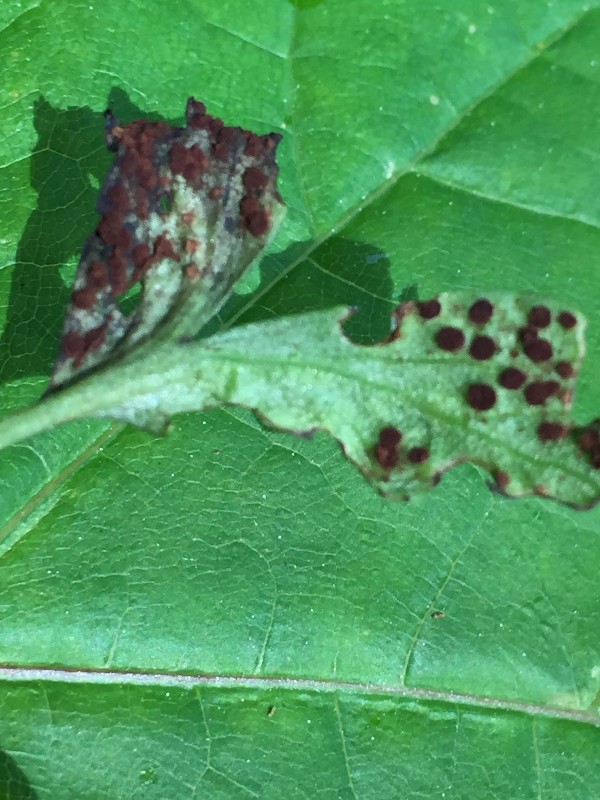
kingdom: Fungi
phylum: Basidiomycota
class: Pucciniomycetes
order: Pucciniales
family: Tranzscheliaceae
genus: Tranzschelia
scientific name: Tranzschelia anemones
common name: anemone-knæksporerust
